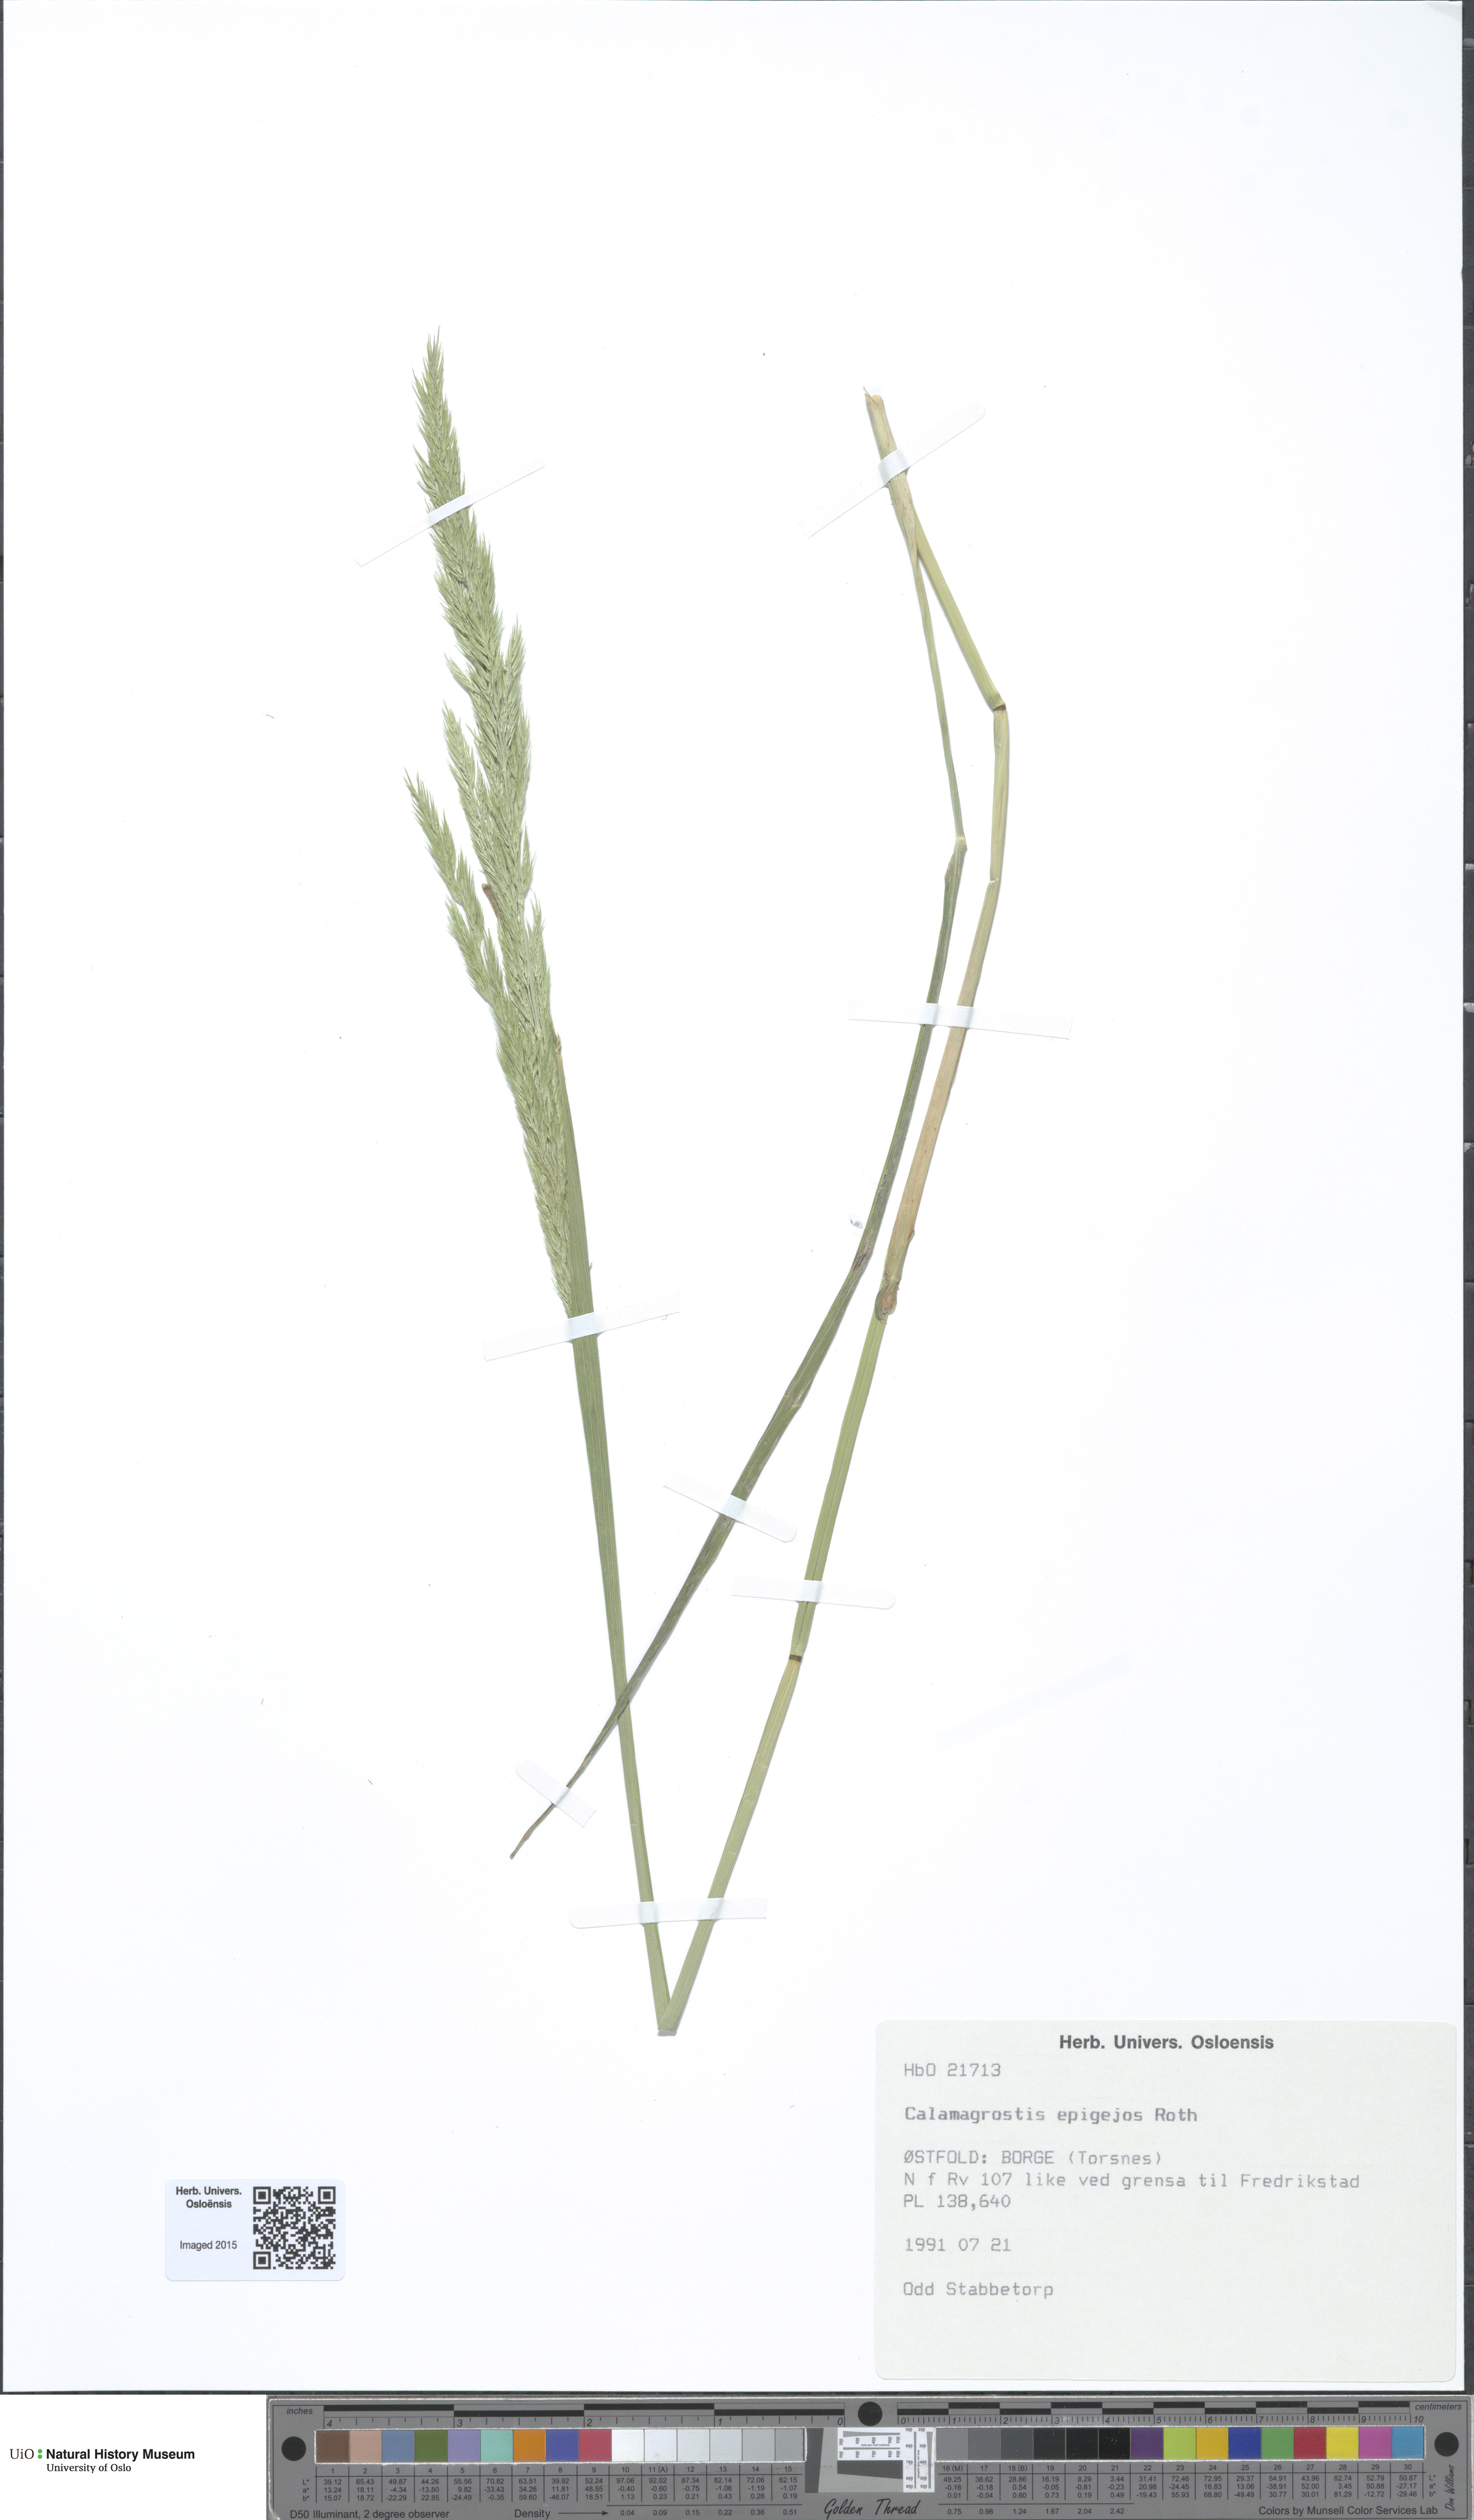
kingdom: Plantae
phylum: Tracheophyta
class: Liliopsida
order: Poales
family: Poaceae
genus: Calamagrostis
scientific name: Calamagrostis epigejos
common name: Wood small-reed
